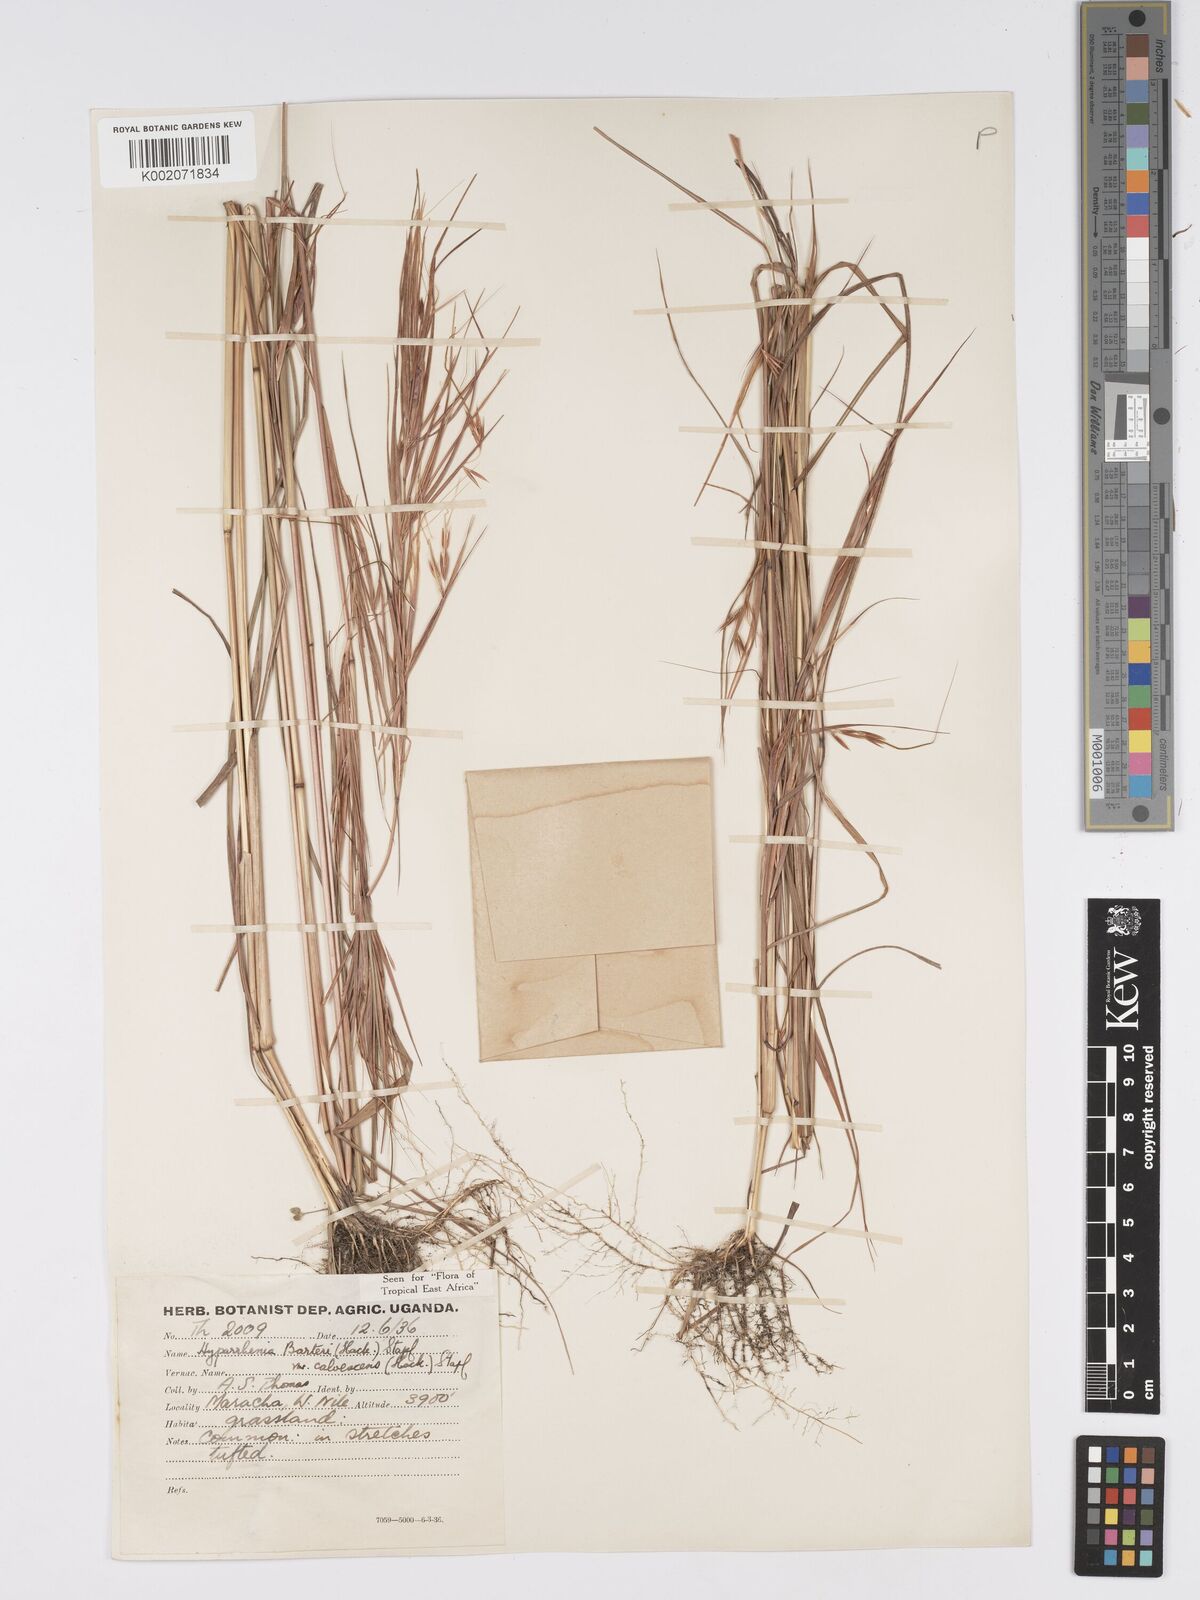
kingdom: Plantae
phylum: Tracheophyta
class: Liliopsida
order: Poales
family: Poaceae
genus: Hyparrhenia
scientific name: Hyparrhenia figariana
